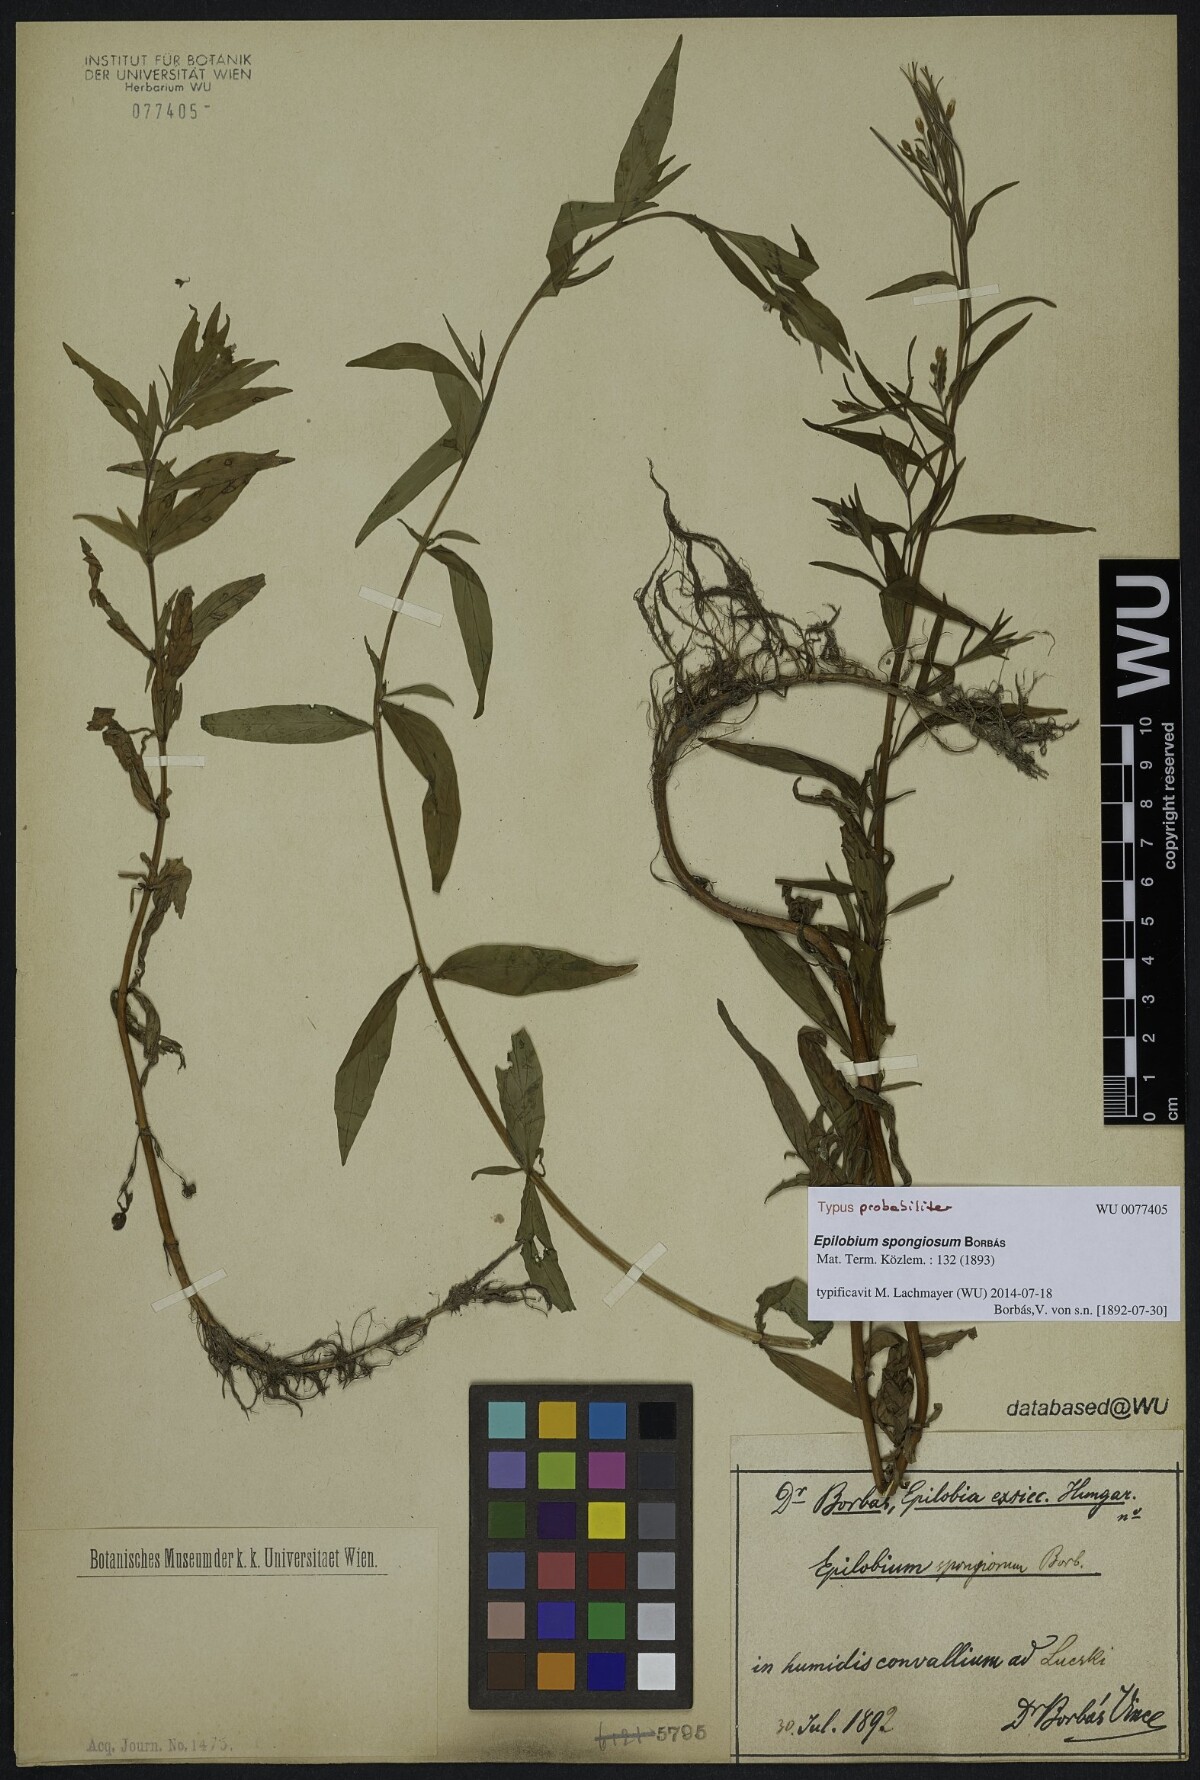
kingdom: Plantae
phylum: Tracheophyta
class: Magnoliopsida
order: Myrtales
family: Onagraceae
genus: Epilobium
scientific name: Epilobium rivulare
